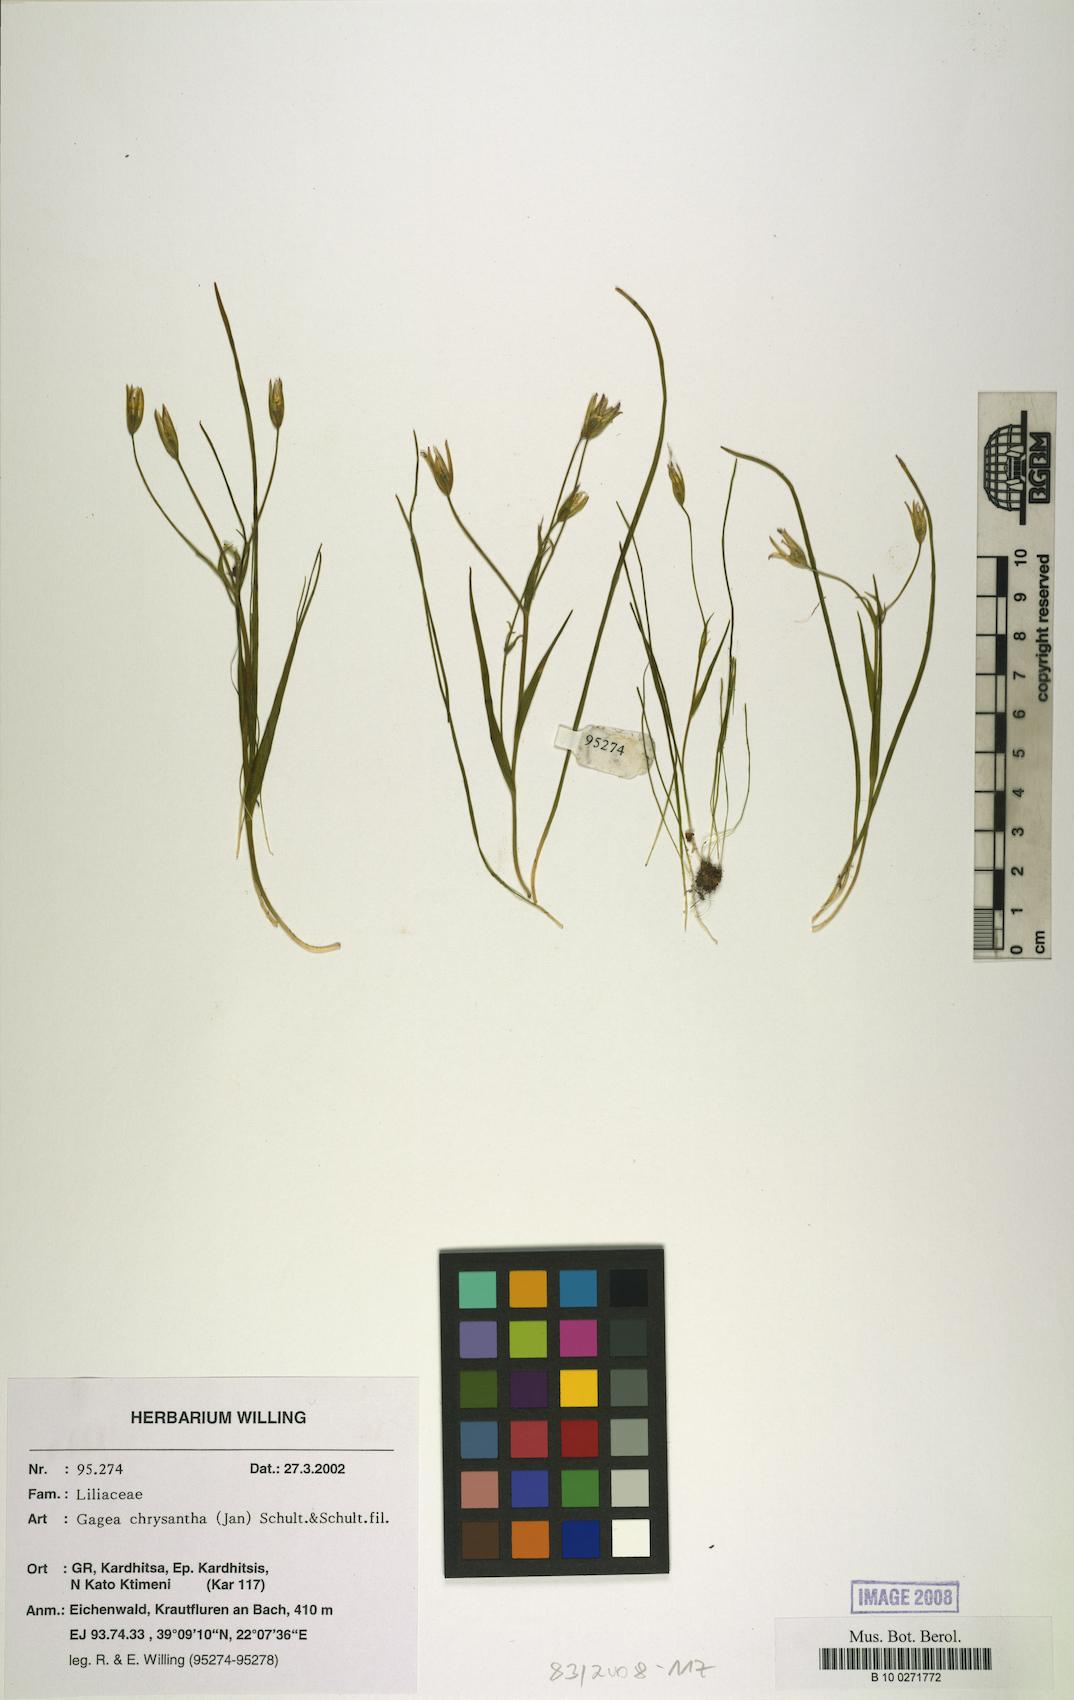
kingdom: Plantae
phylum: Tracheophyta
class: Liliopsida
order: Liliales
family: Liliaceae
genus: Gagea
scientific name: Gagea chrysantha
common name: Golden gagea
